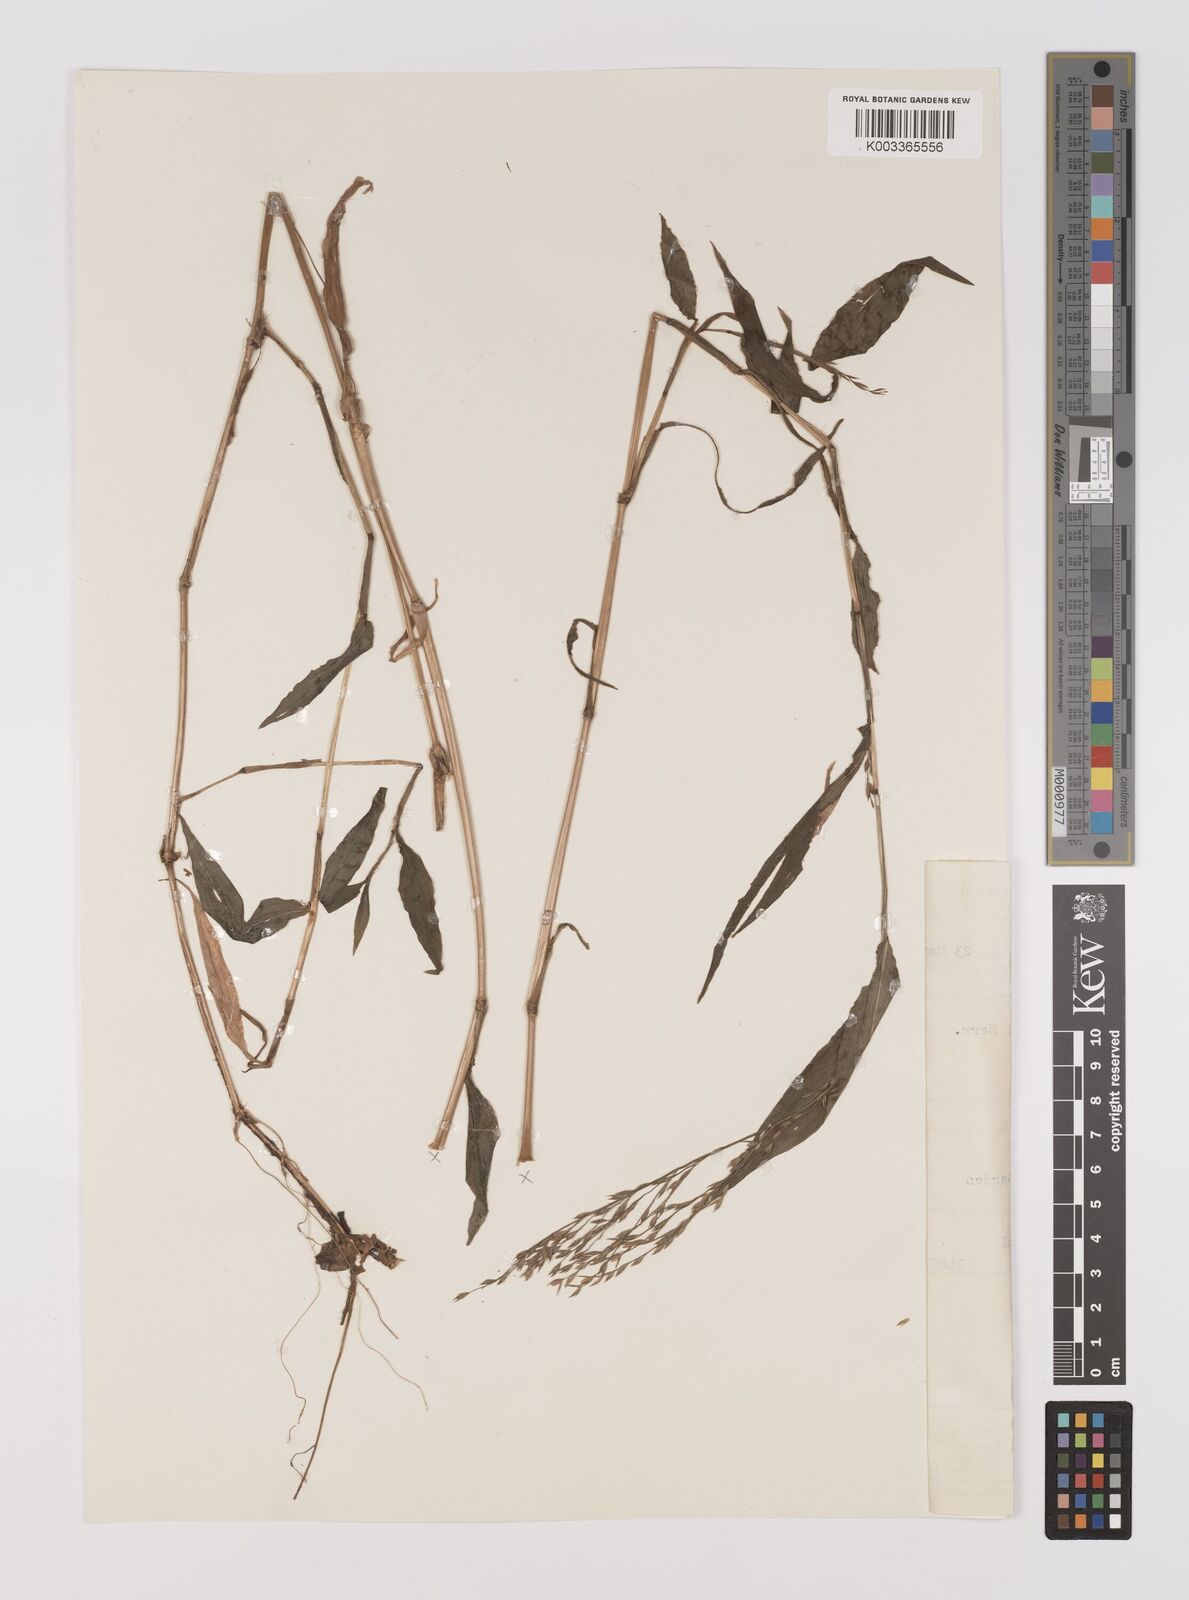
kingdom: Plantae
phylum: Tracheophyta
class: Liliopsida
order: Poales
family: Poaceae
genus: Ichnanthus
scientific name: Ichnanthus pallens
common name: Water grass
